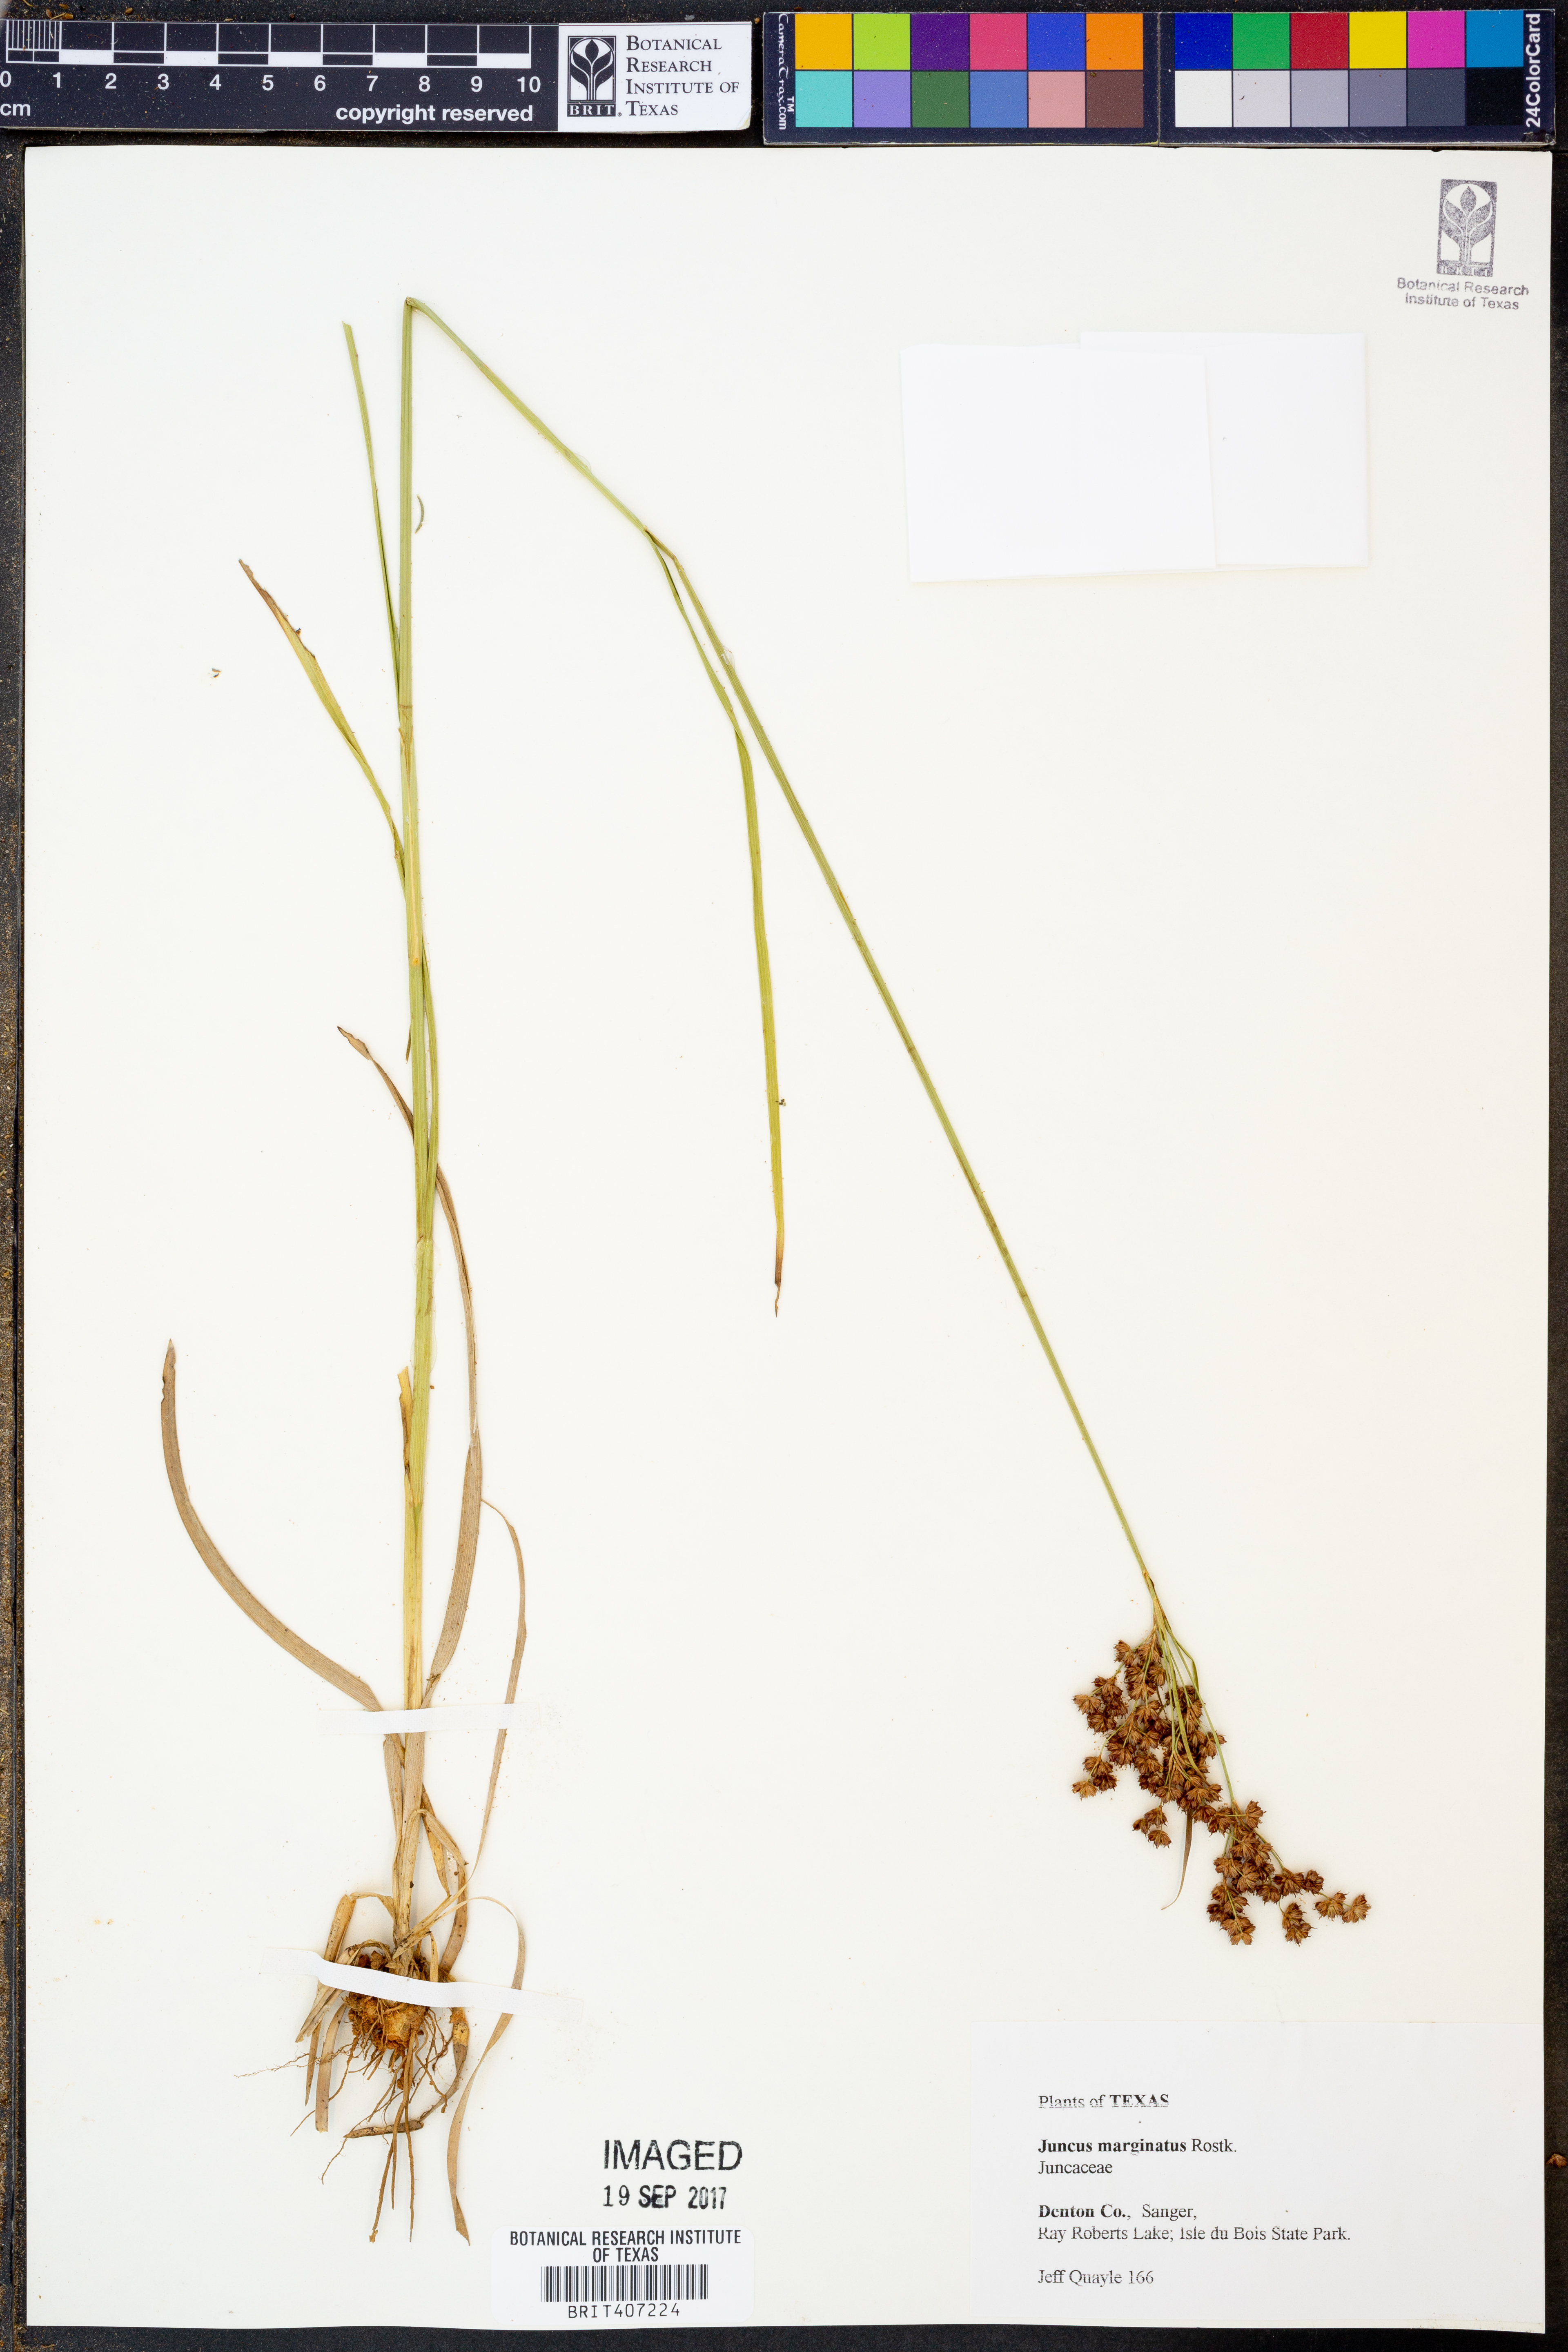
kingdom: Plantae
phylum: Tracheophyta
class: Liliopsida
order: Poales
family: Juncaceae
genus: Juncus
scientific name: Juncus marginatus
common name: Grass-leaf rush
